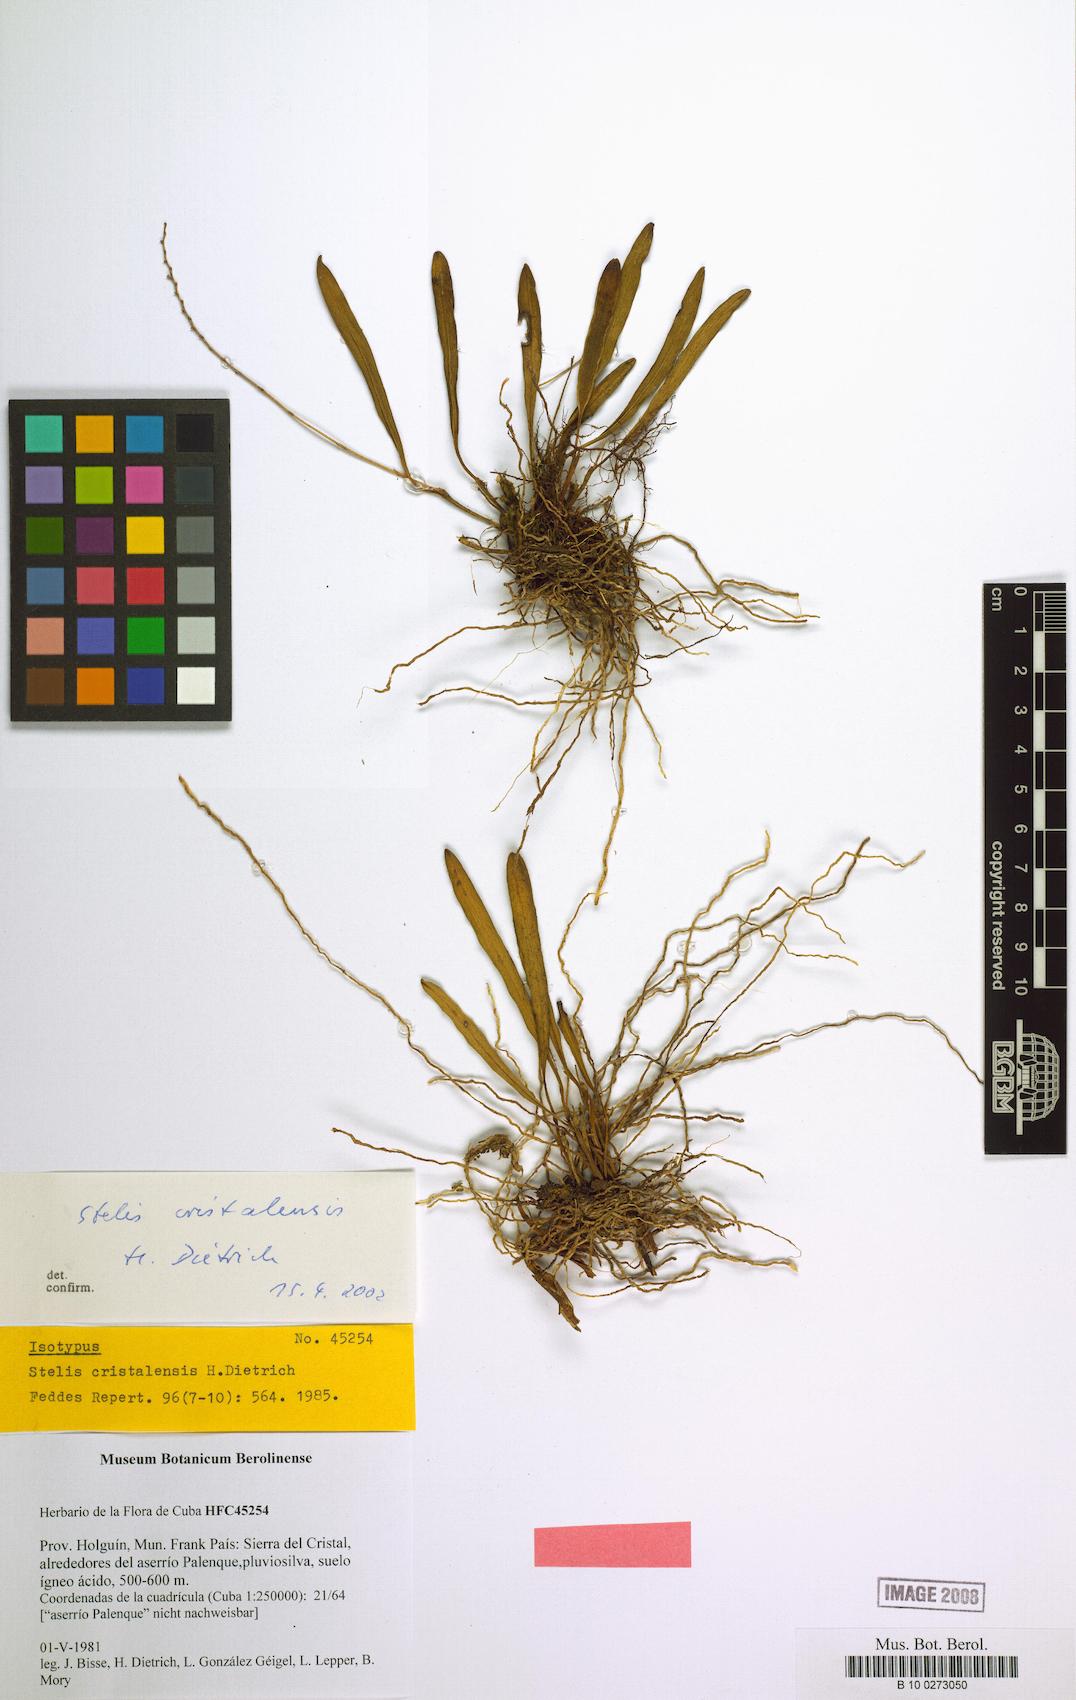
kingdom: Plantae
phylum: Tracheophyta
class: Liliopsida
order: Asparagales
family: Orchidaceae
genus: Stelis
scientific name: Stelis ophioglossoides
